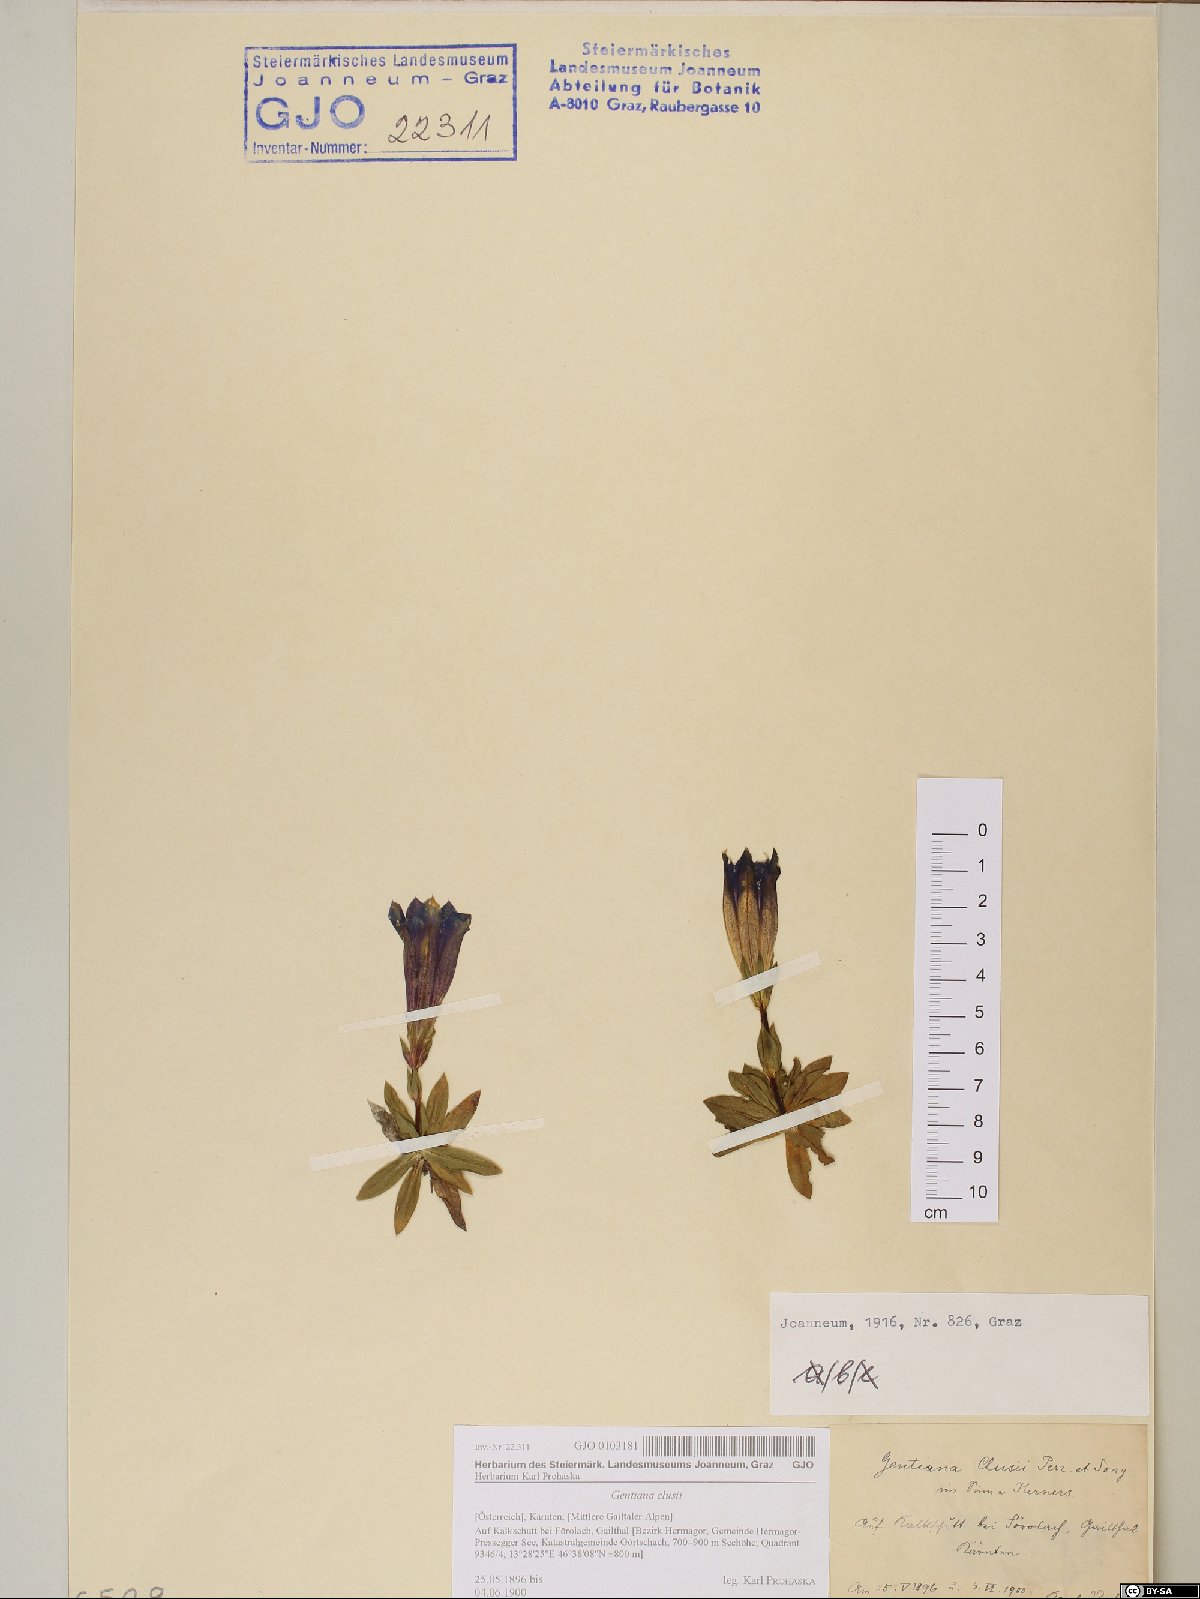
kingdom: Plantae
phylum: Tracheophyta
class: Magnoliopsida
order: Gentianales
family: Gentianaceae
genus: Gentiana
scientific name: Gentiana clusii
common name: Trumpet gentian
